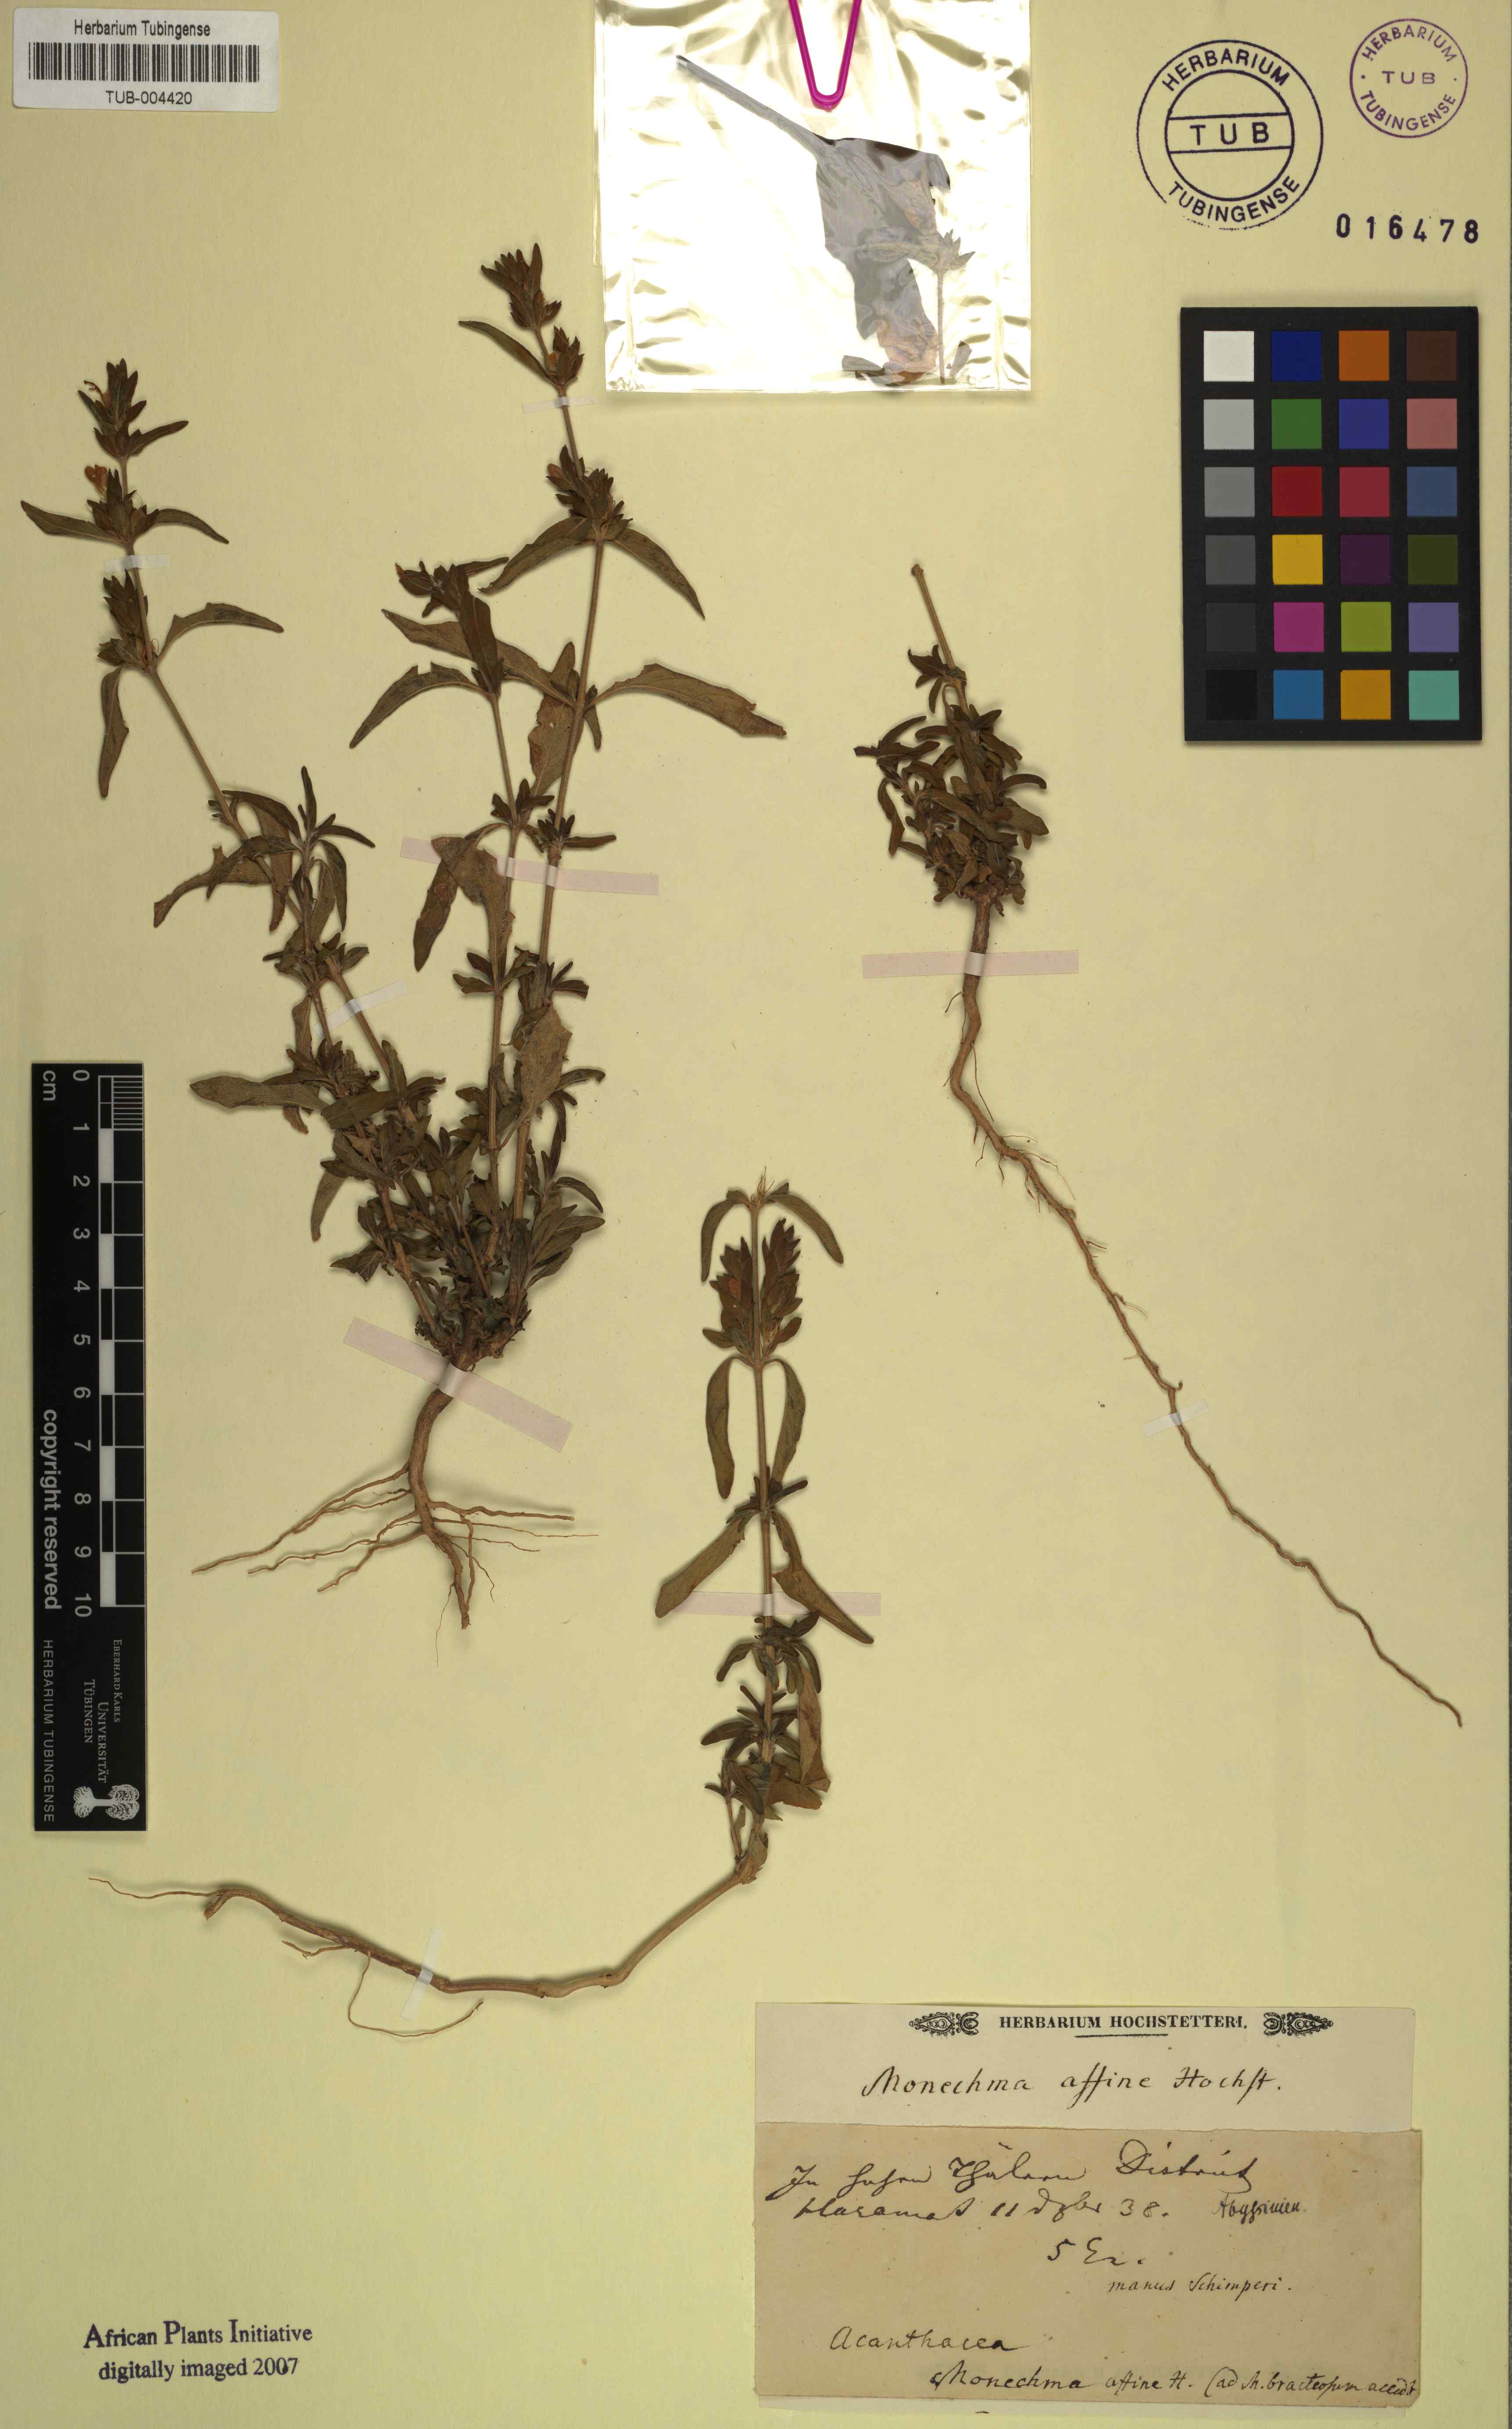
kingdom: Plantae
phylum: Tracheophyta
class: Magnoliopsida
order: Lamiales
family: Acanthaceae
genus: Monechma
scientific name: Monechma debile
